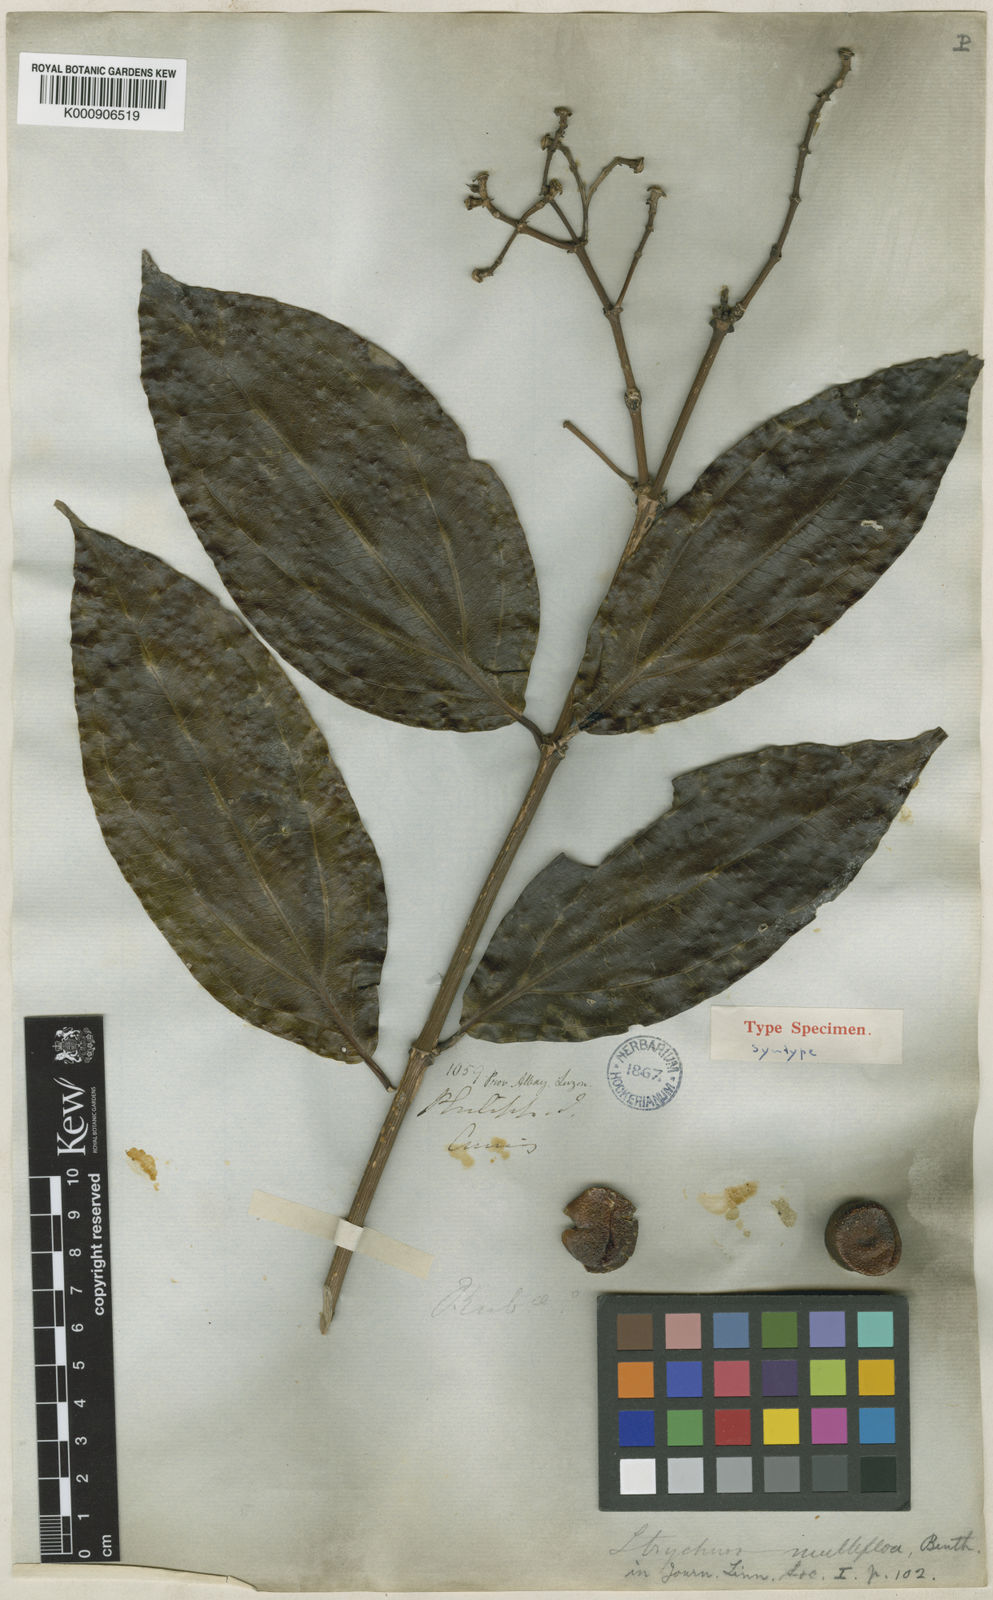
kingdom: Plantae
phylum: Tracheophyta
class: Magnoliopsida
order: Gentianales
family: Loganiaceae
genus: Strychnos
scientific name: Strychnos minor
